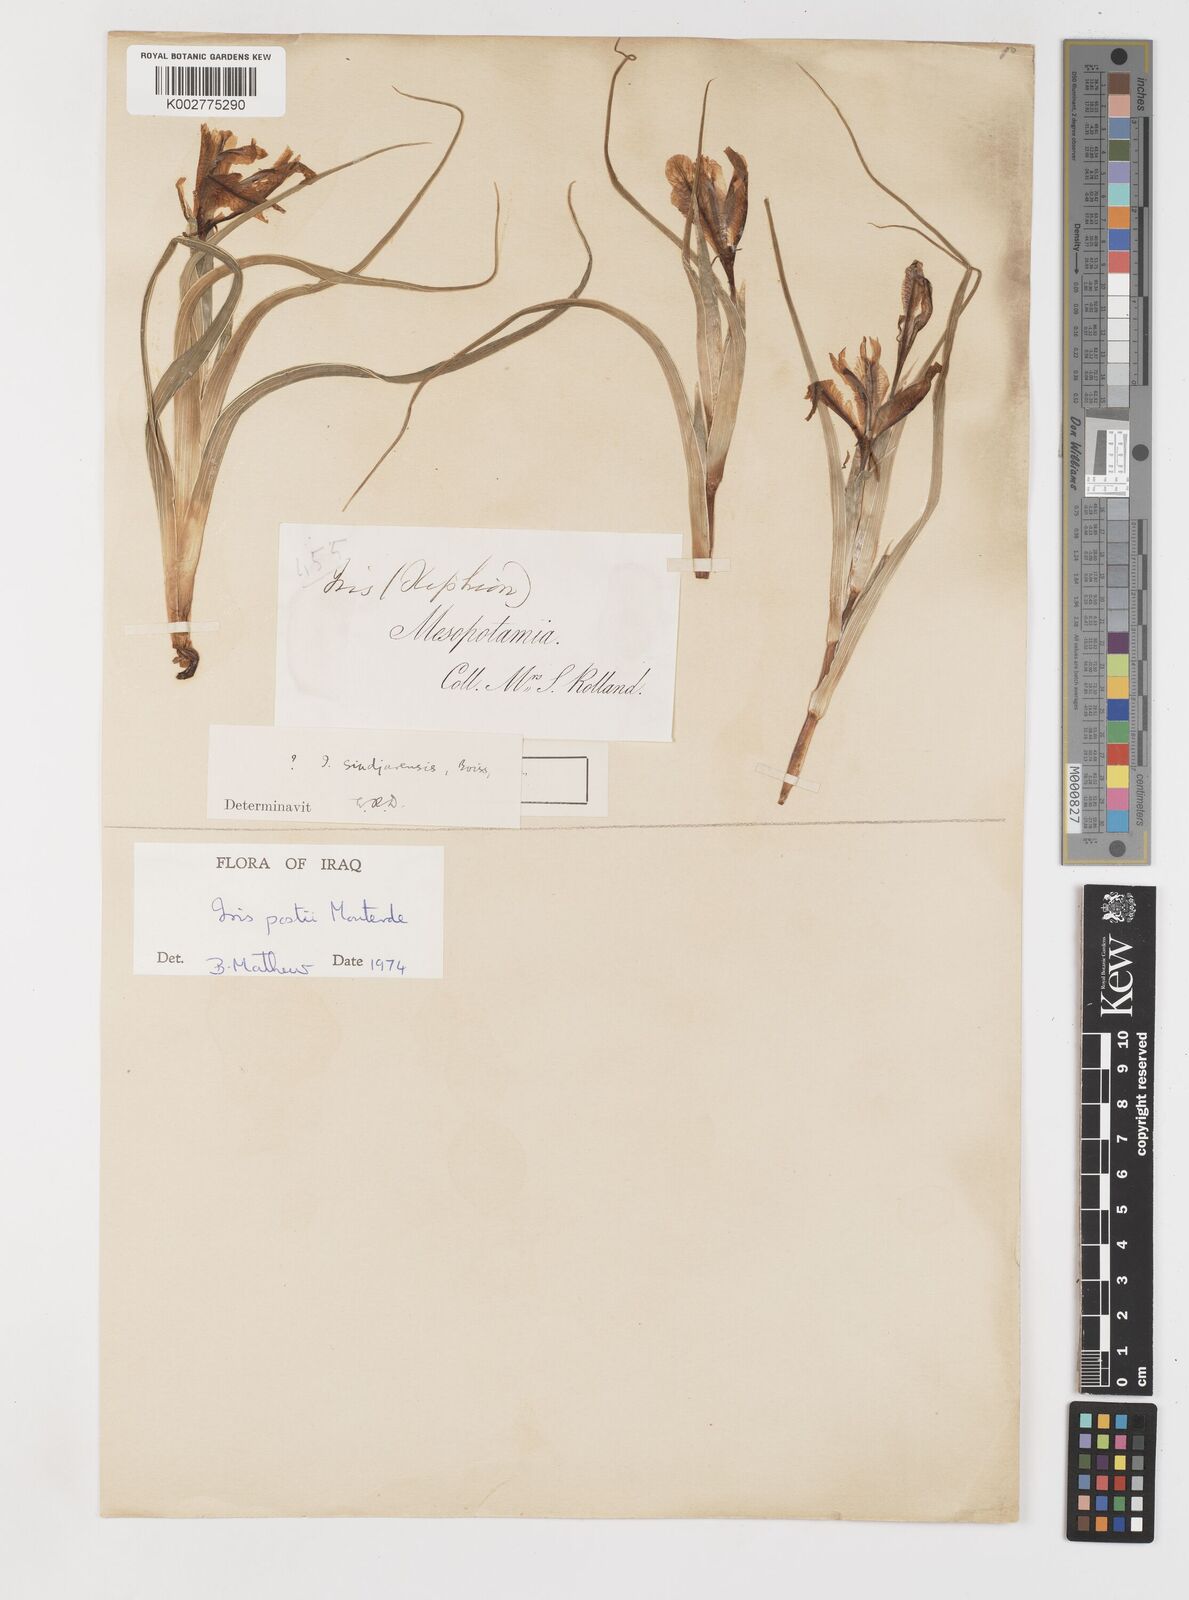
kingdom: Plantae
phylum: Tracheophyta
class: Liliopsida
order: Asparagales
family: Iridaceae
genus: Iris
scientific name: Iris postii
